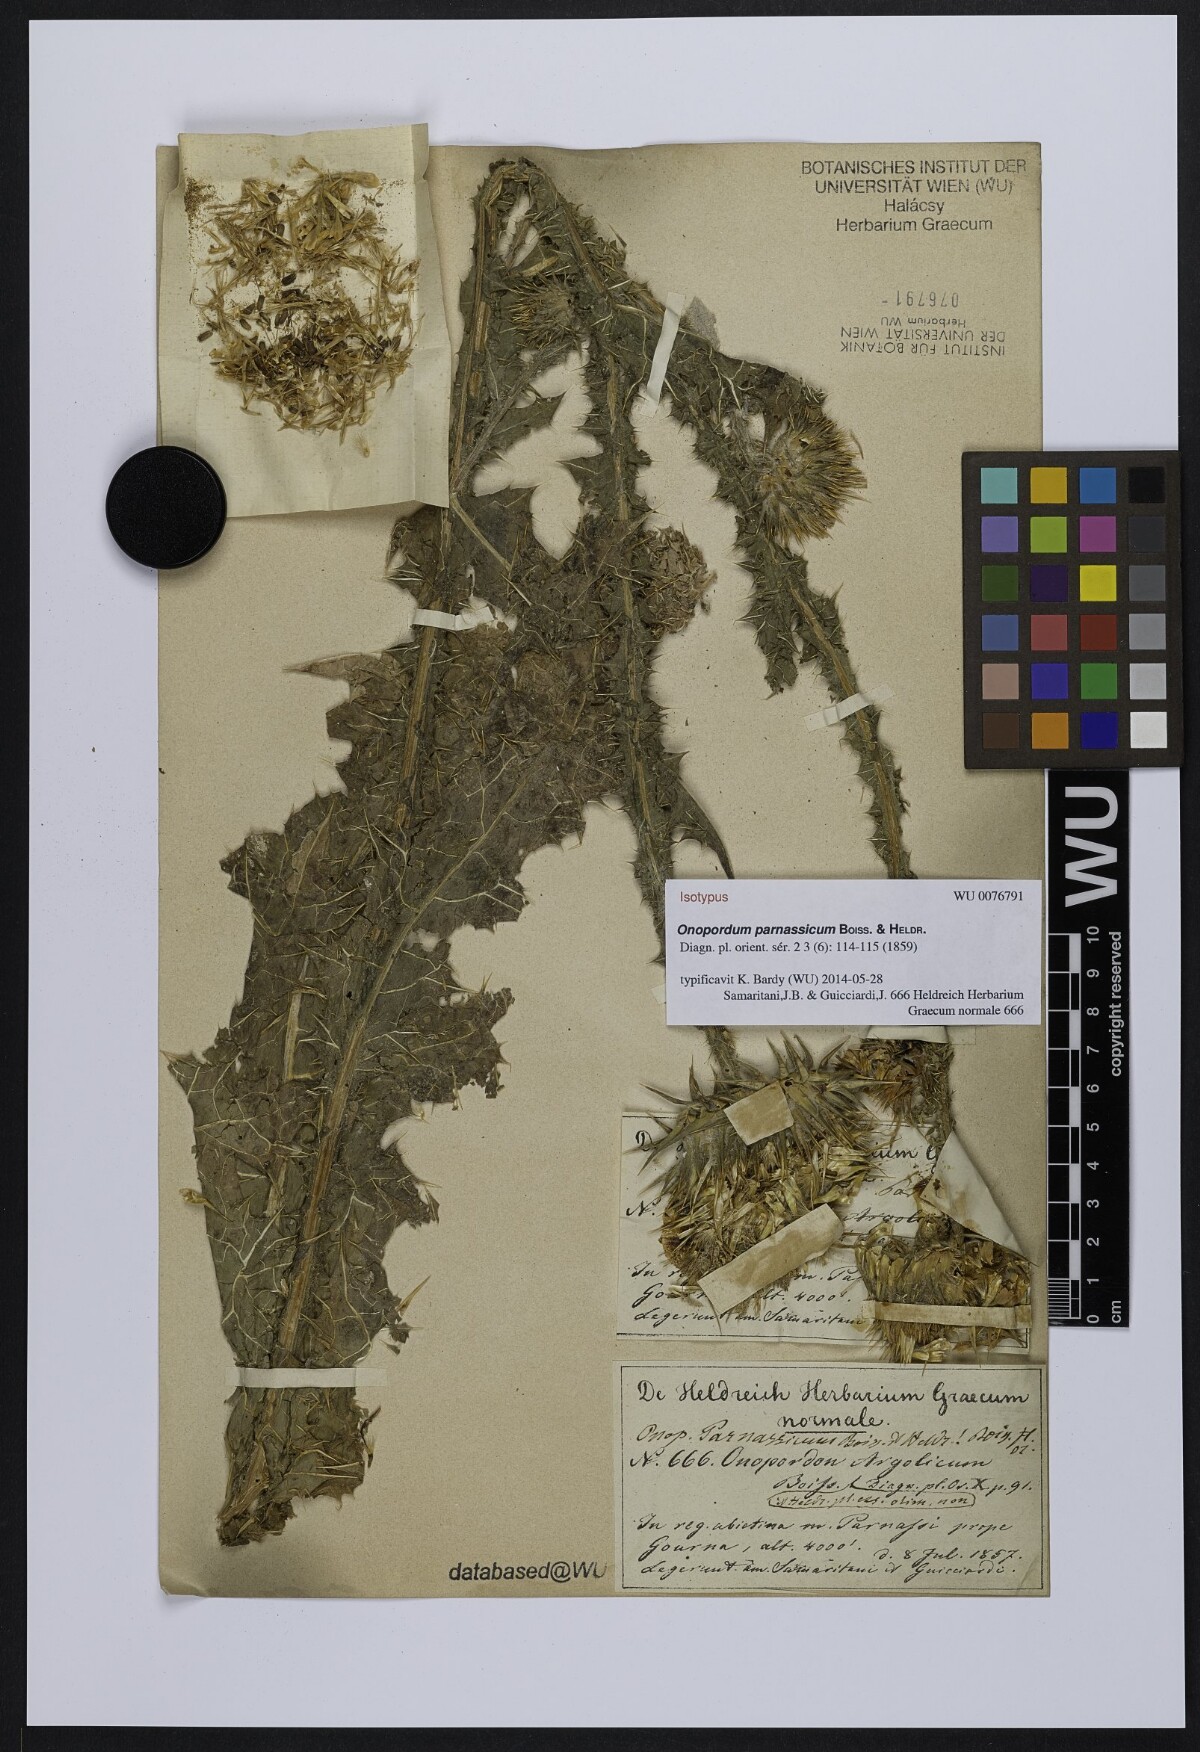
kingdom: Plantae
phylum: Tracheophyta
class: Magnoliopsida
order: Asterales
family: Asteraceae
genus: Onopordum
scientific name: Onopordum acanthium
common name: Scotch thistle
